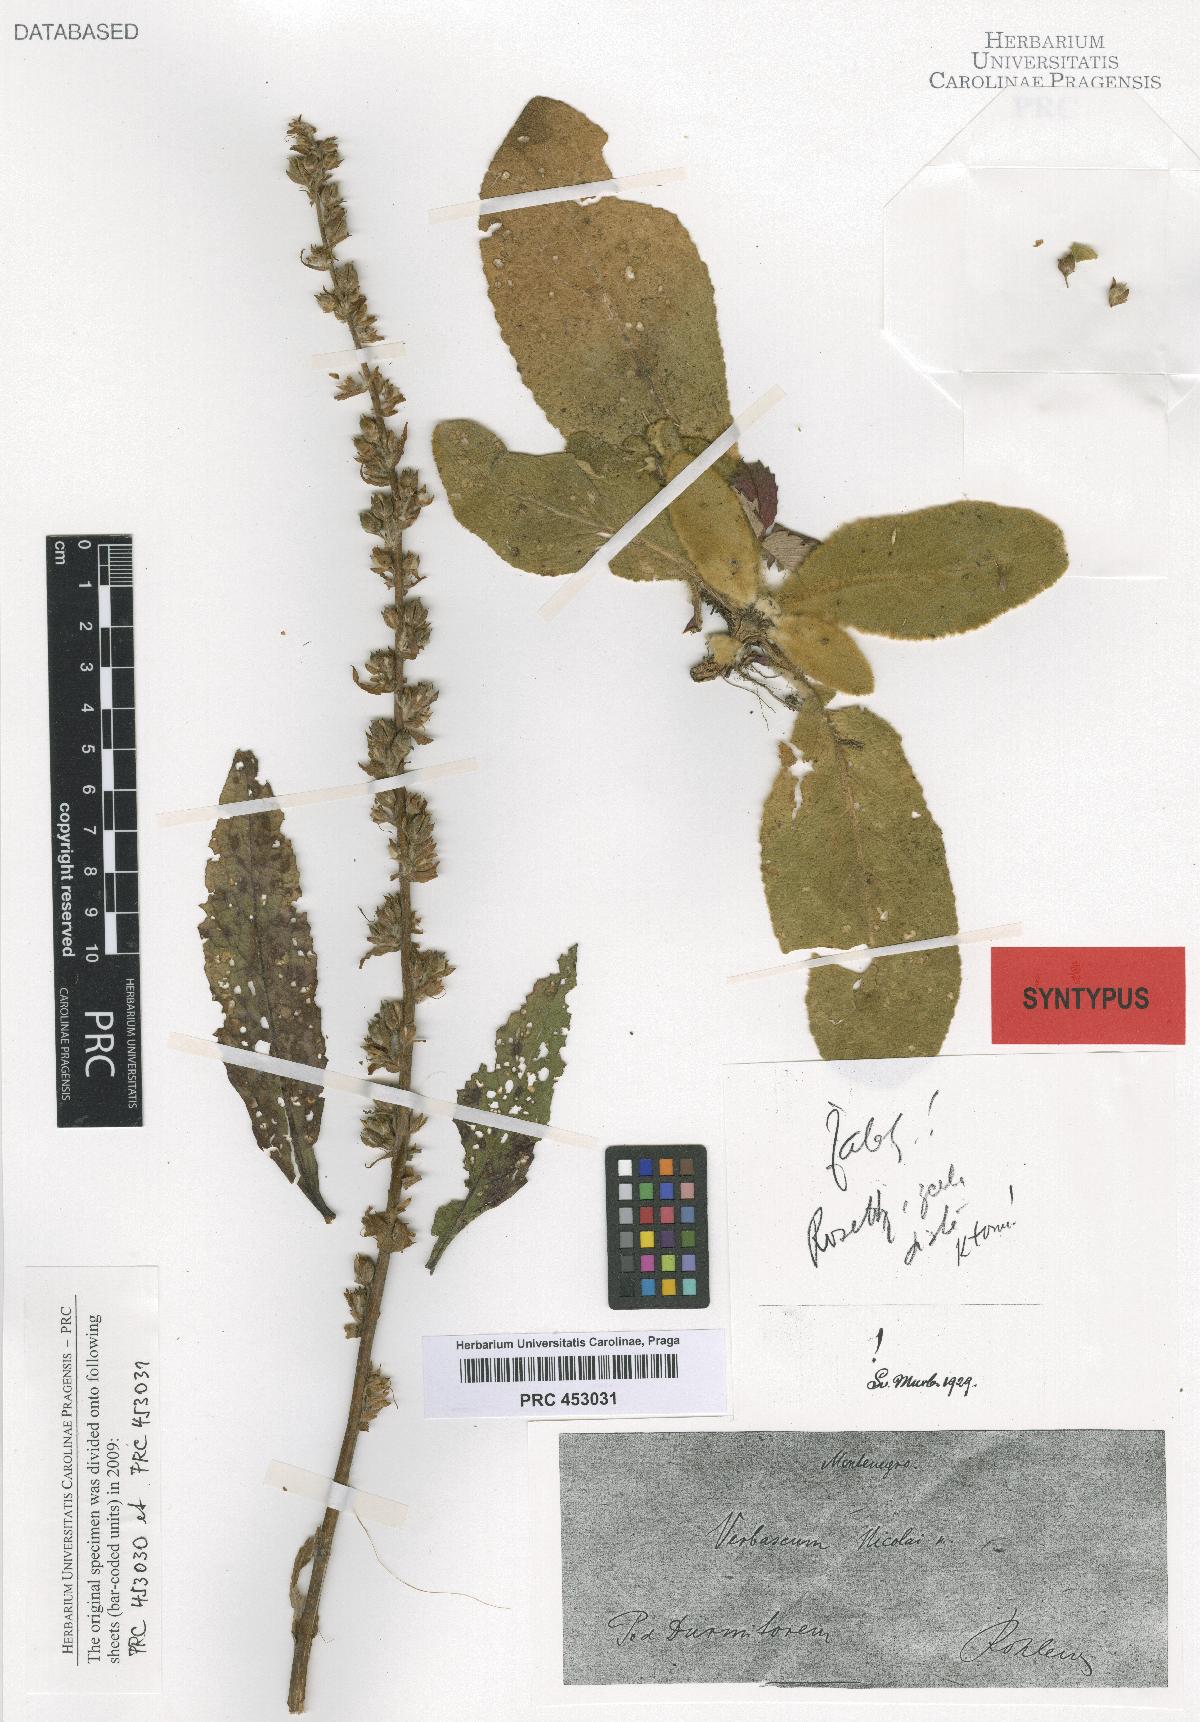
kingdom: Plantae
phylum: Tracheophyta
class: Magnoliopsida
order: Lamiales
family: Scrophulariaceae
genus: Verbascum
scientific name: Verbascum nicolai
